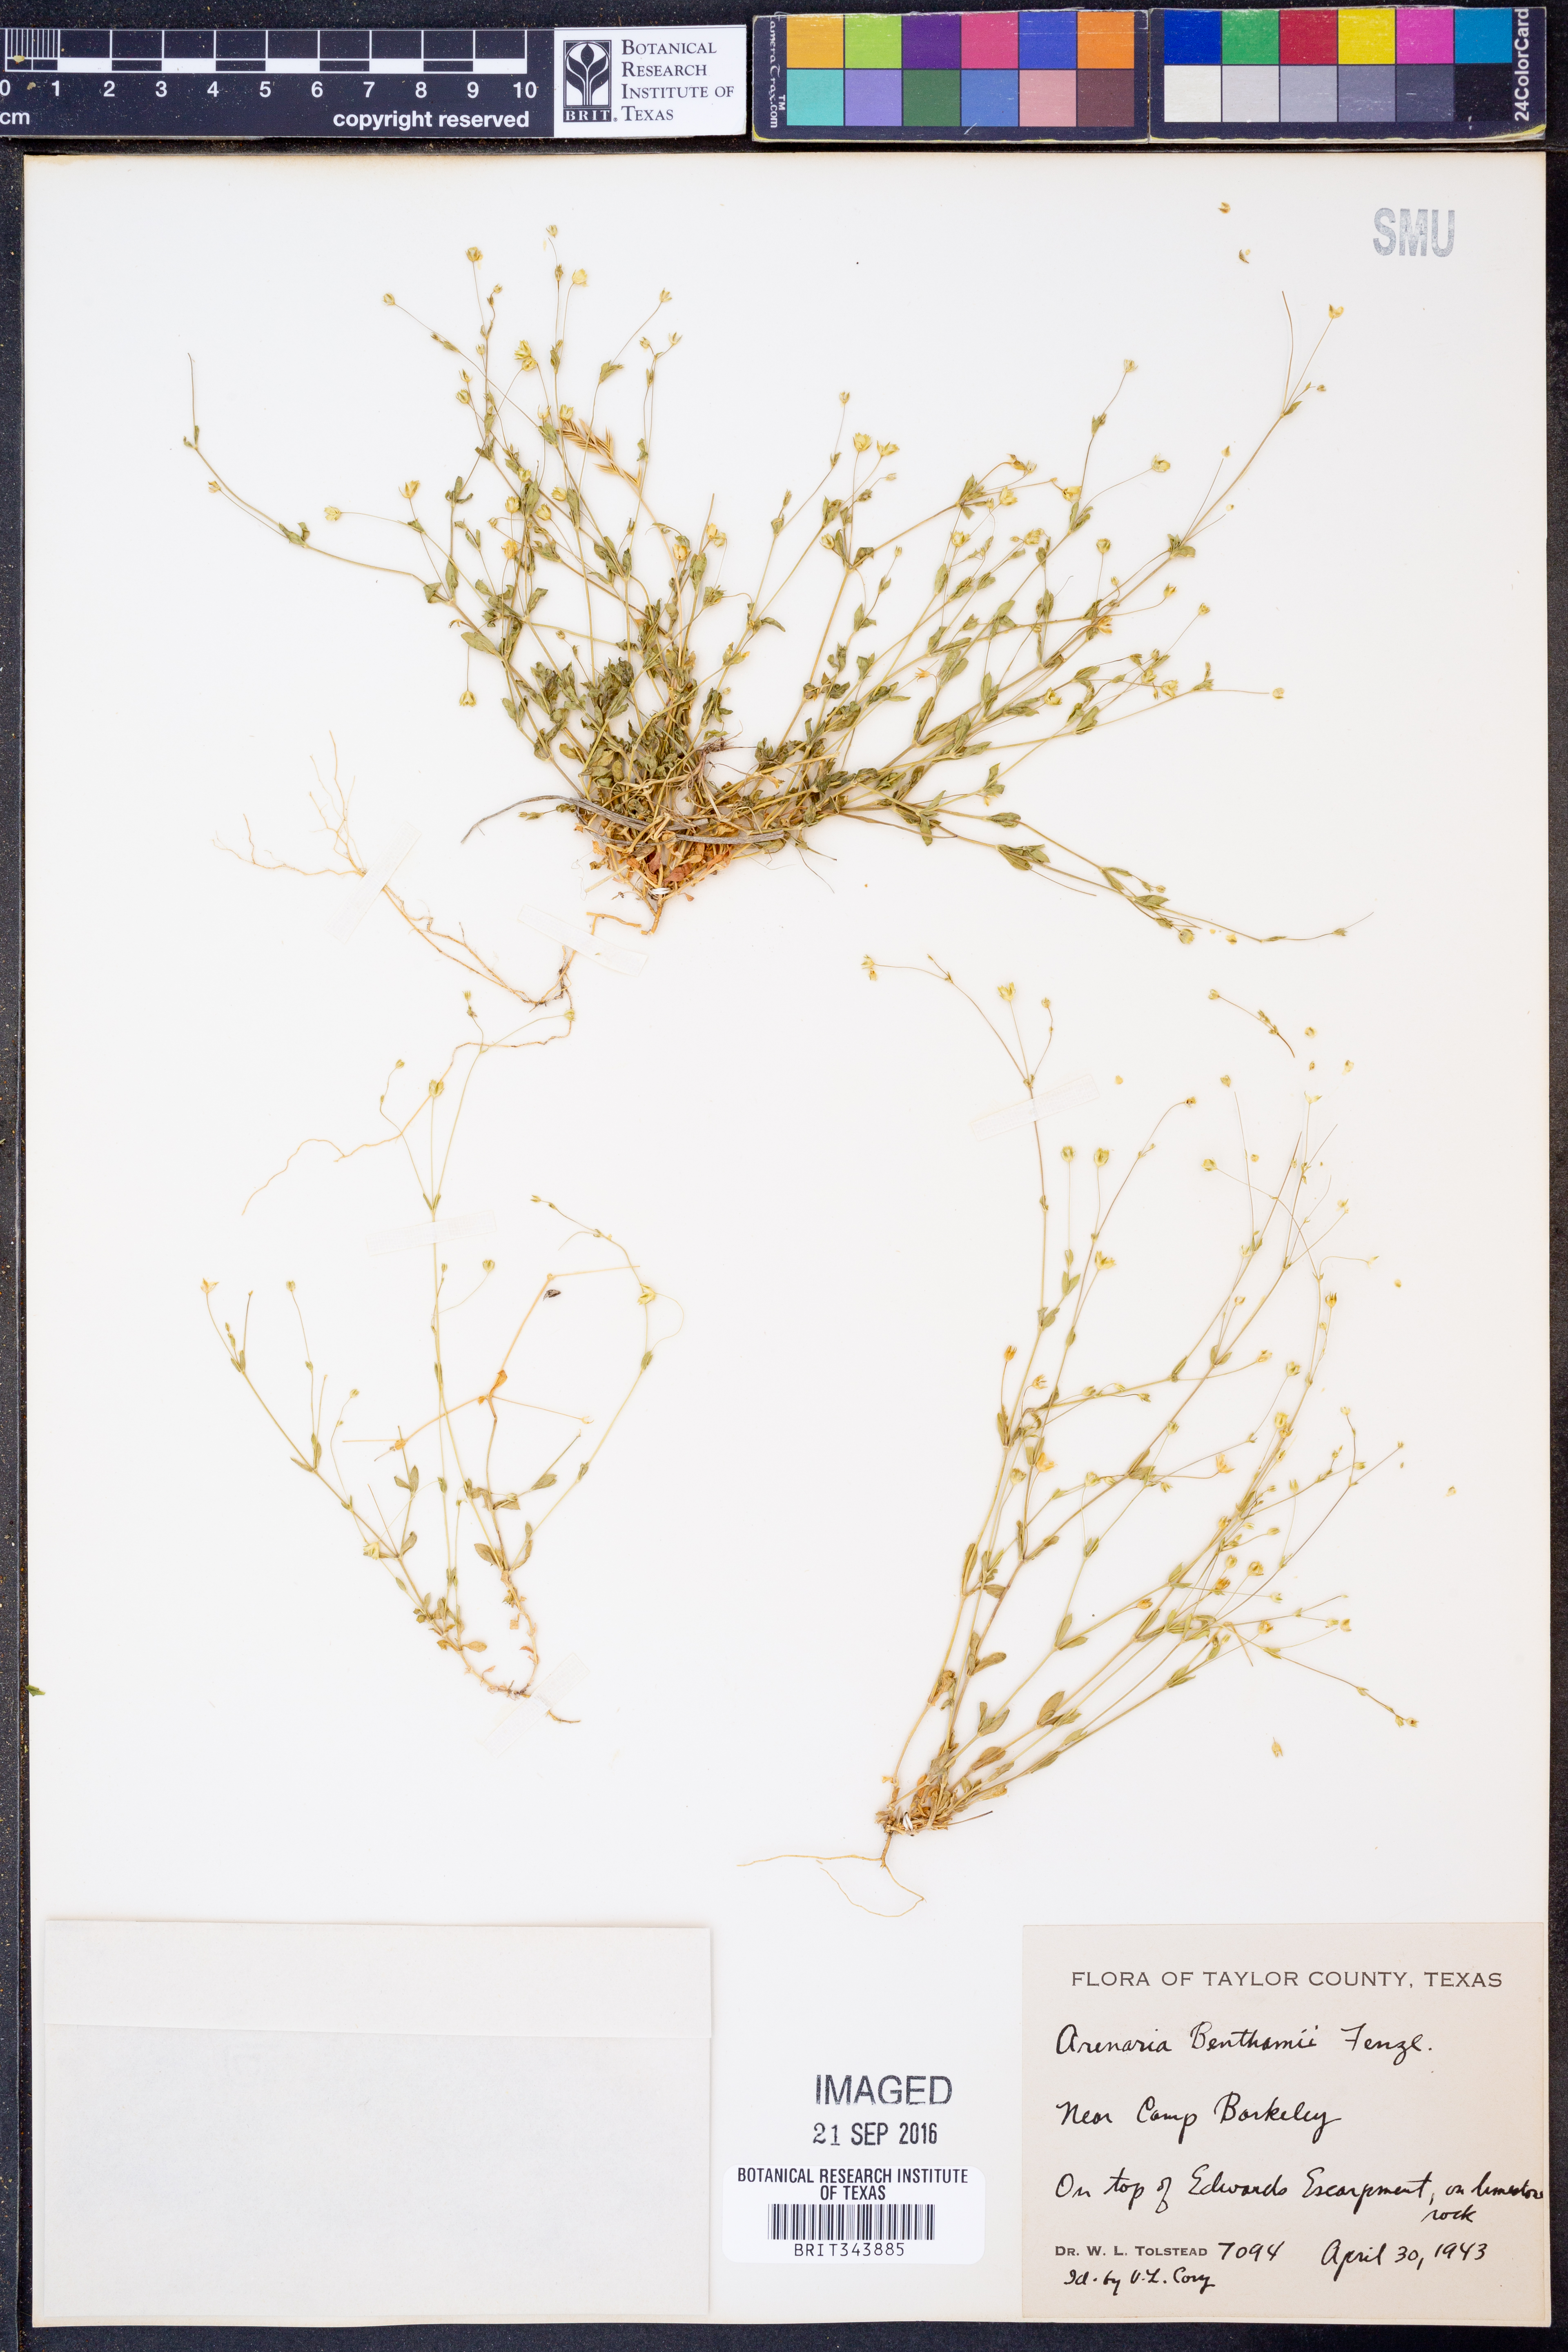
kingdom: Plantae
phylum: Tracheophyta
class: Magnoliopsida
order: Caryophyllales
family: Caryophyllaceae
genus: Arenaria
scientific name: Arenaria benthamii
